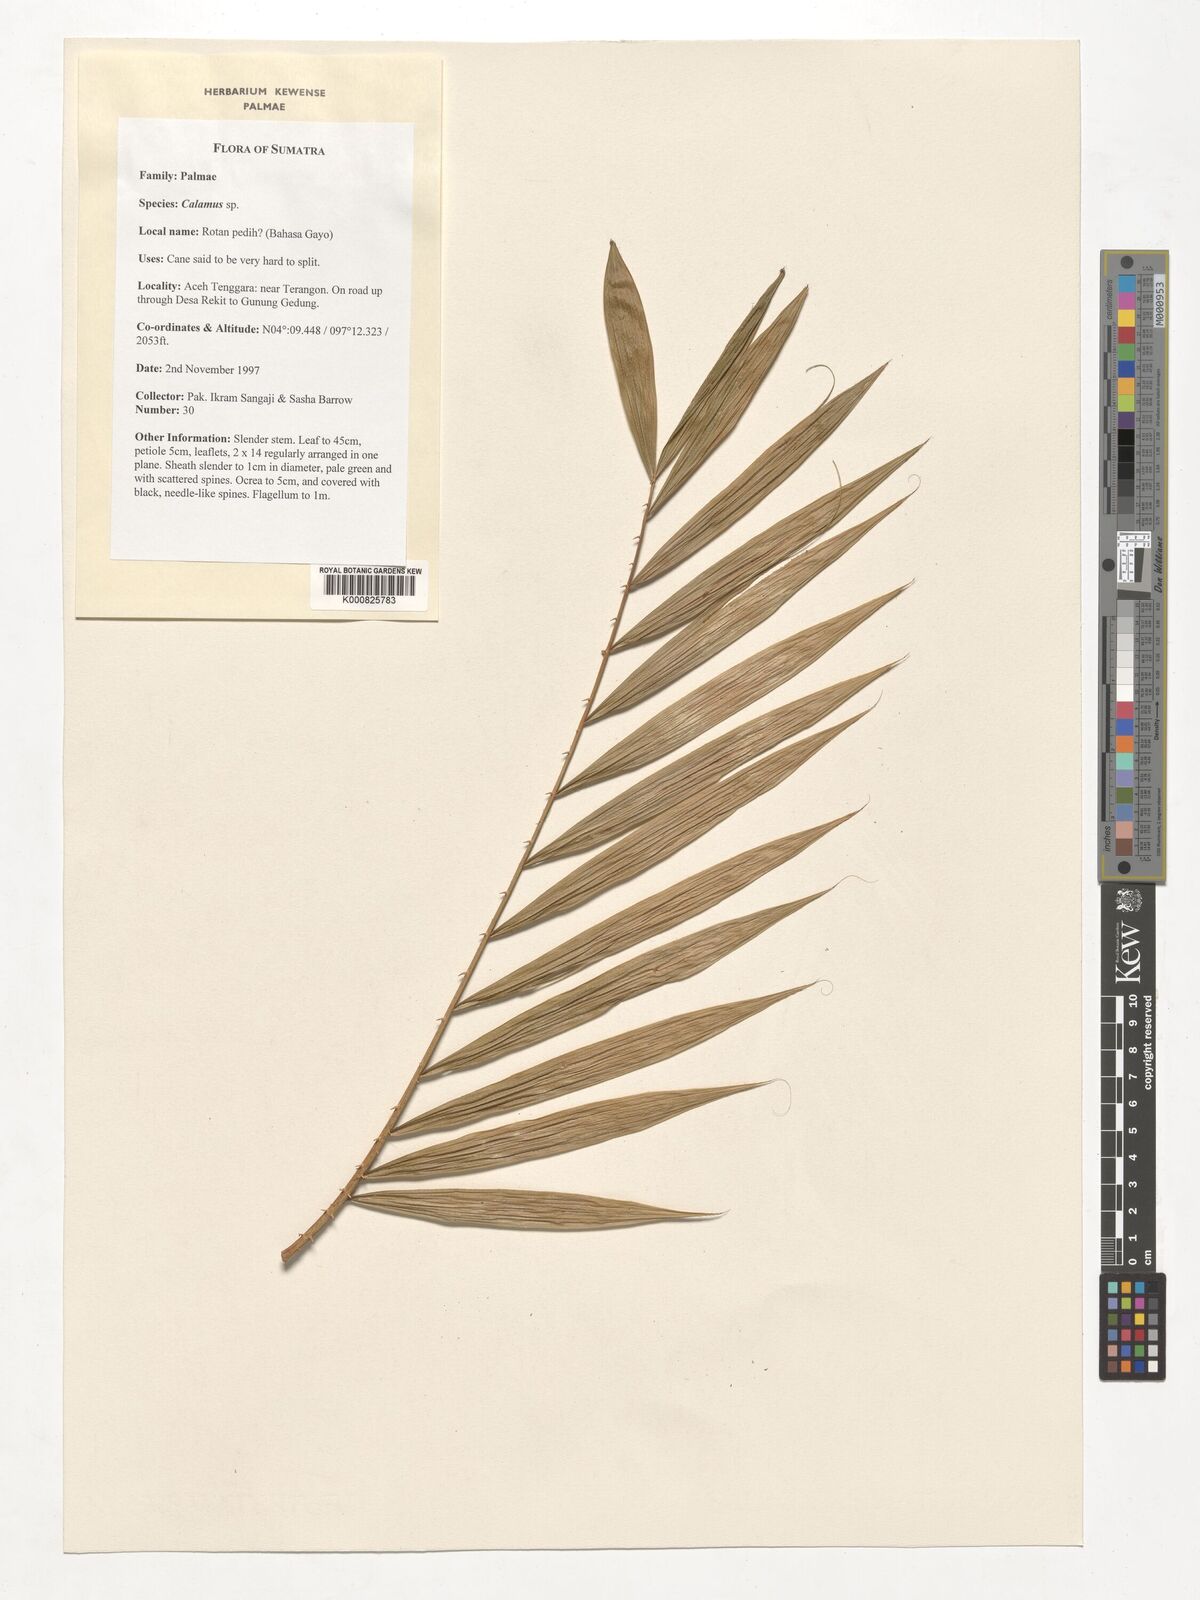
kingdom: Plantae
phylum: Tracheophyta
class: Liliopsida
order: Arecales
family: Arecaceae
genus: Calamus
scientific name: Calamus
